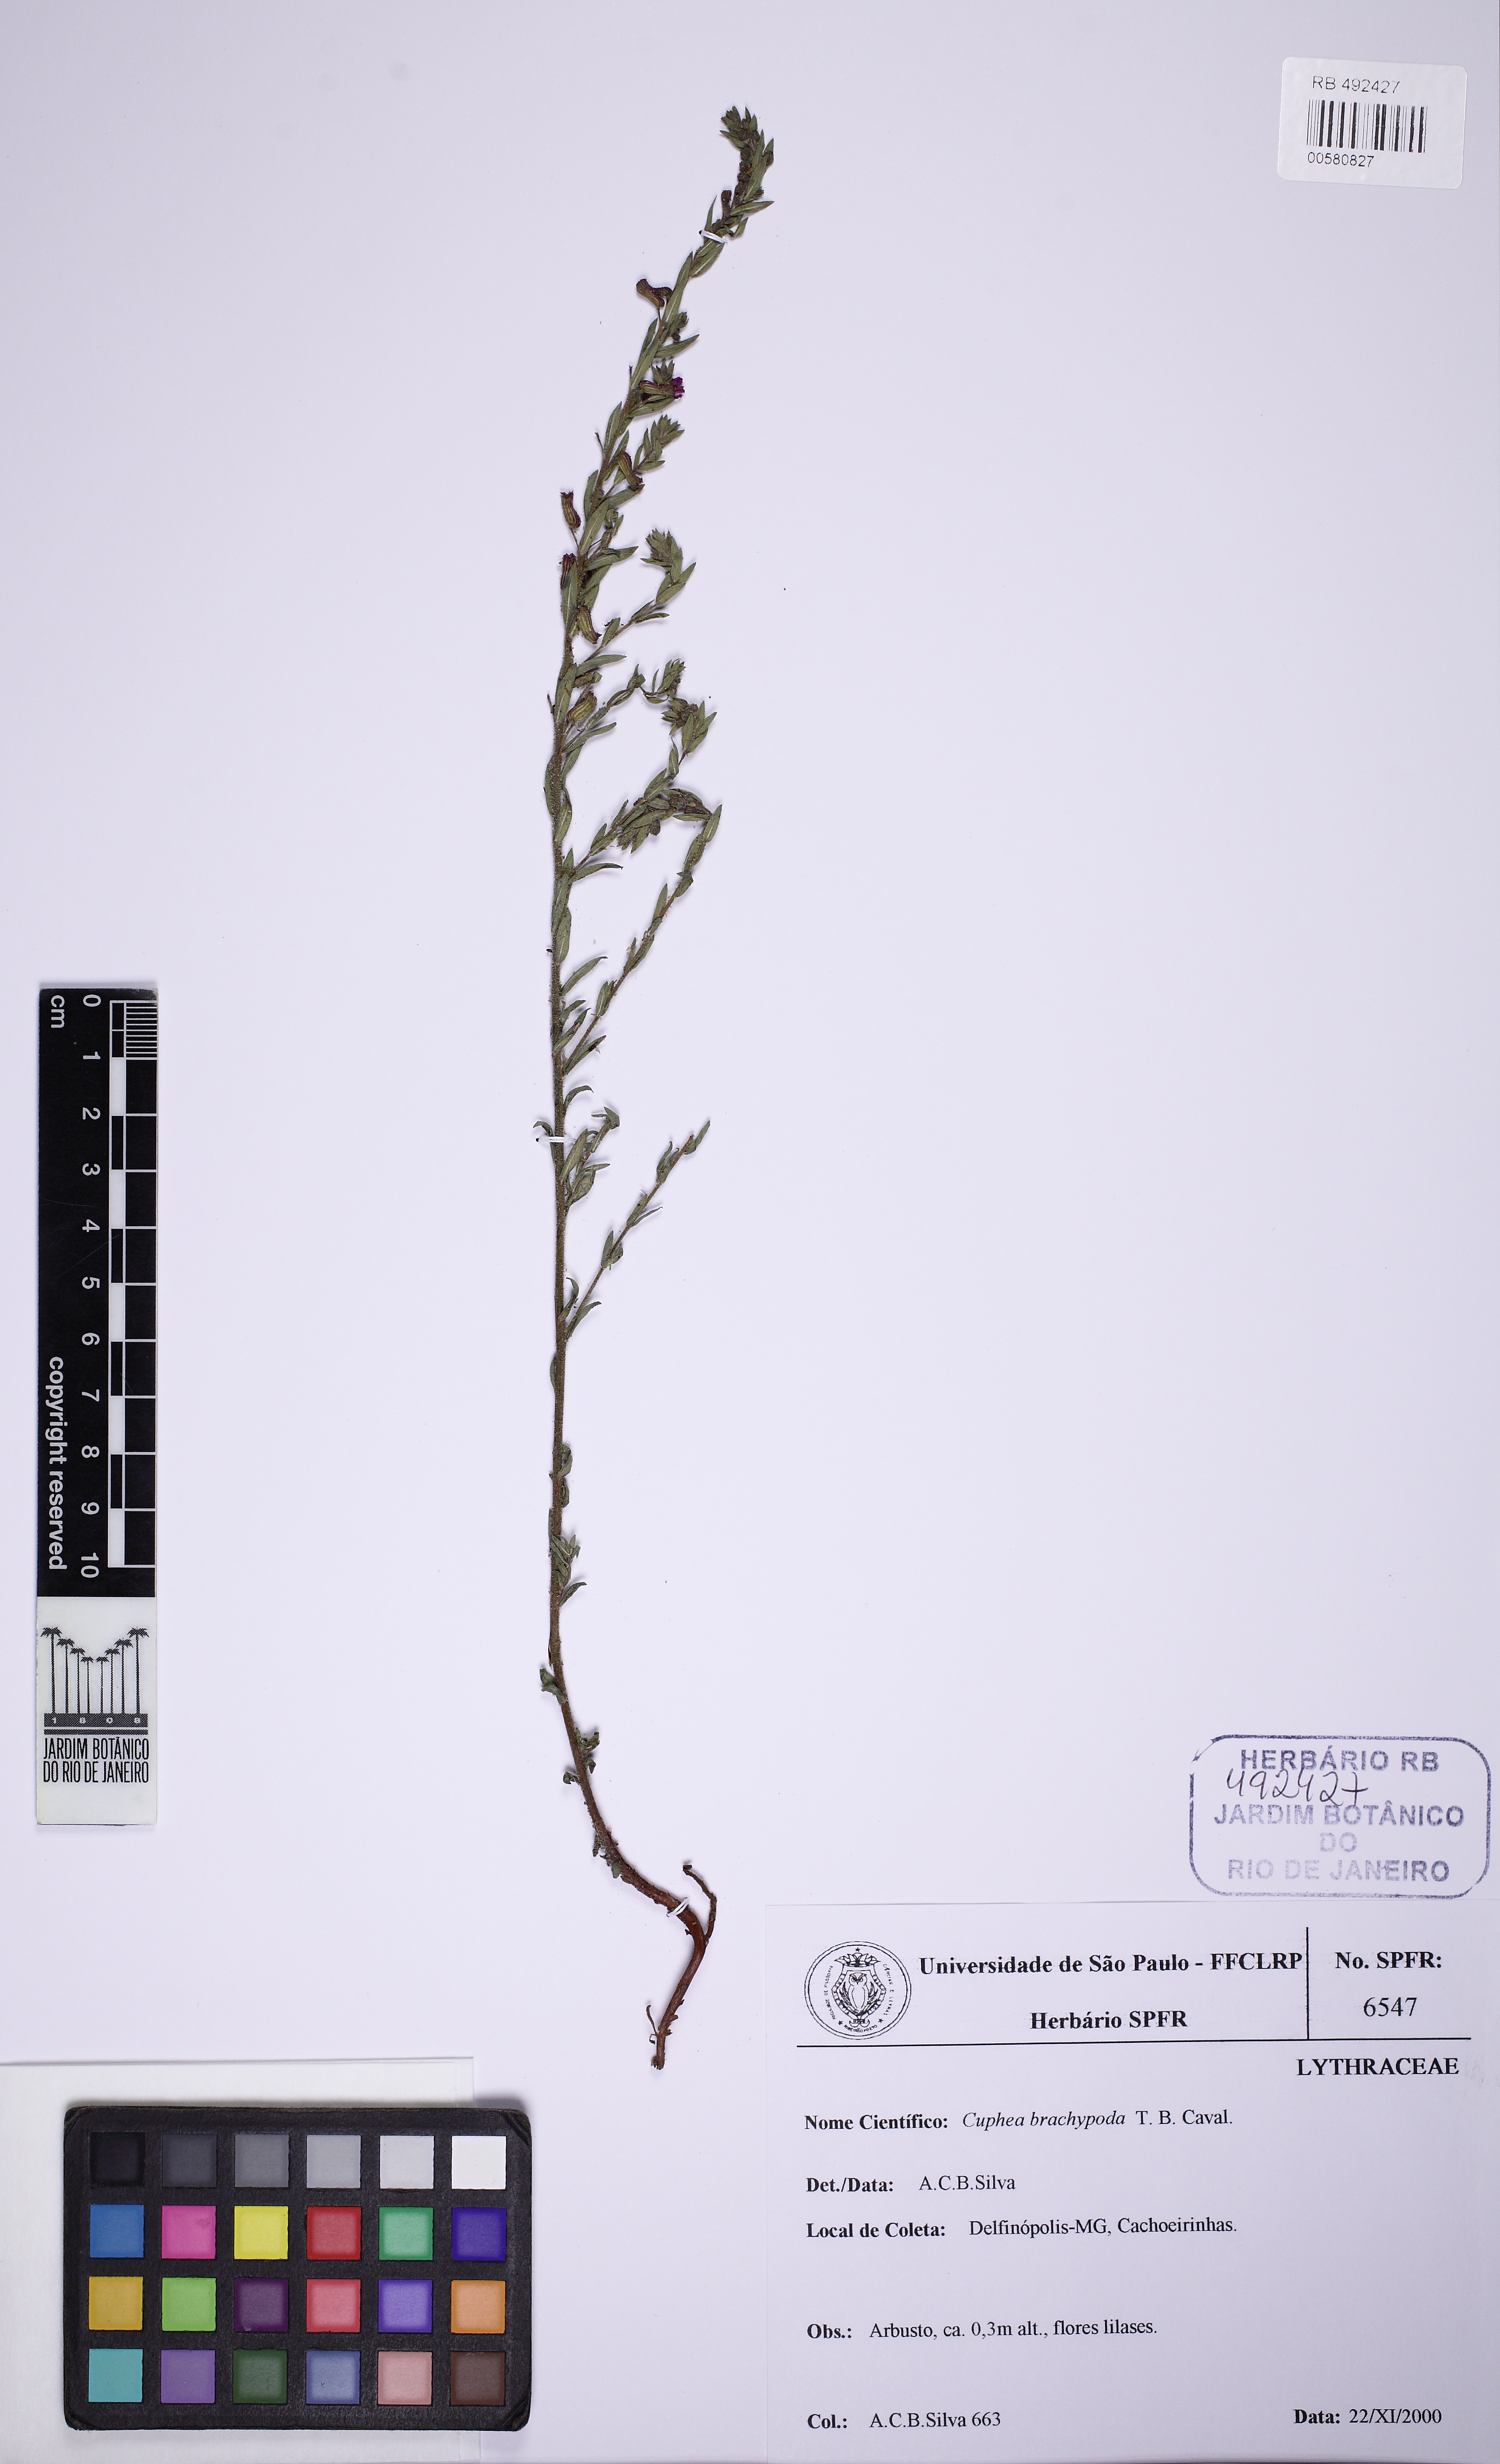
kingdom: Plantae
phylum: Tracheophyta
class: Magnoliopsida
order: Myrtales
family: Lythraceae
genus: Cuphea
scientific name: Cuphea brachypoda
